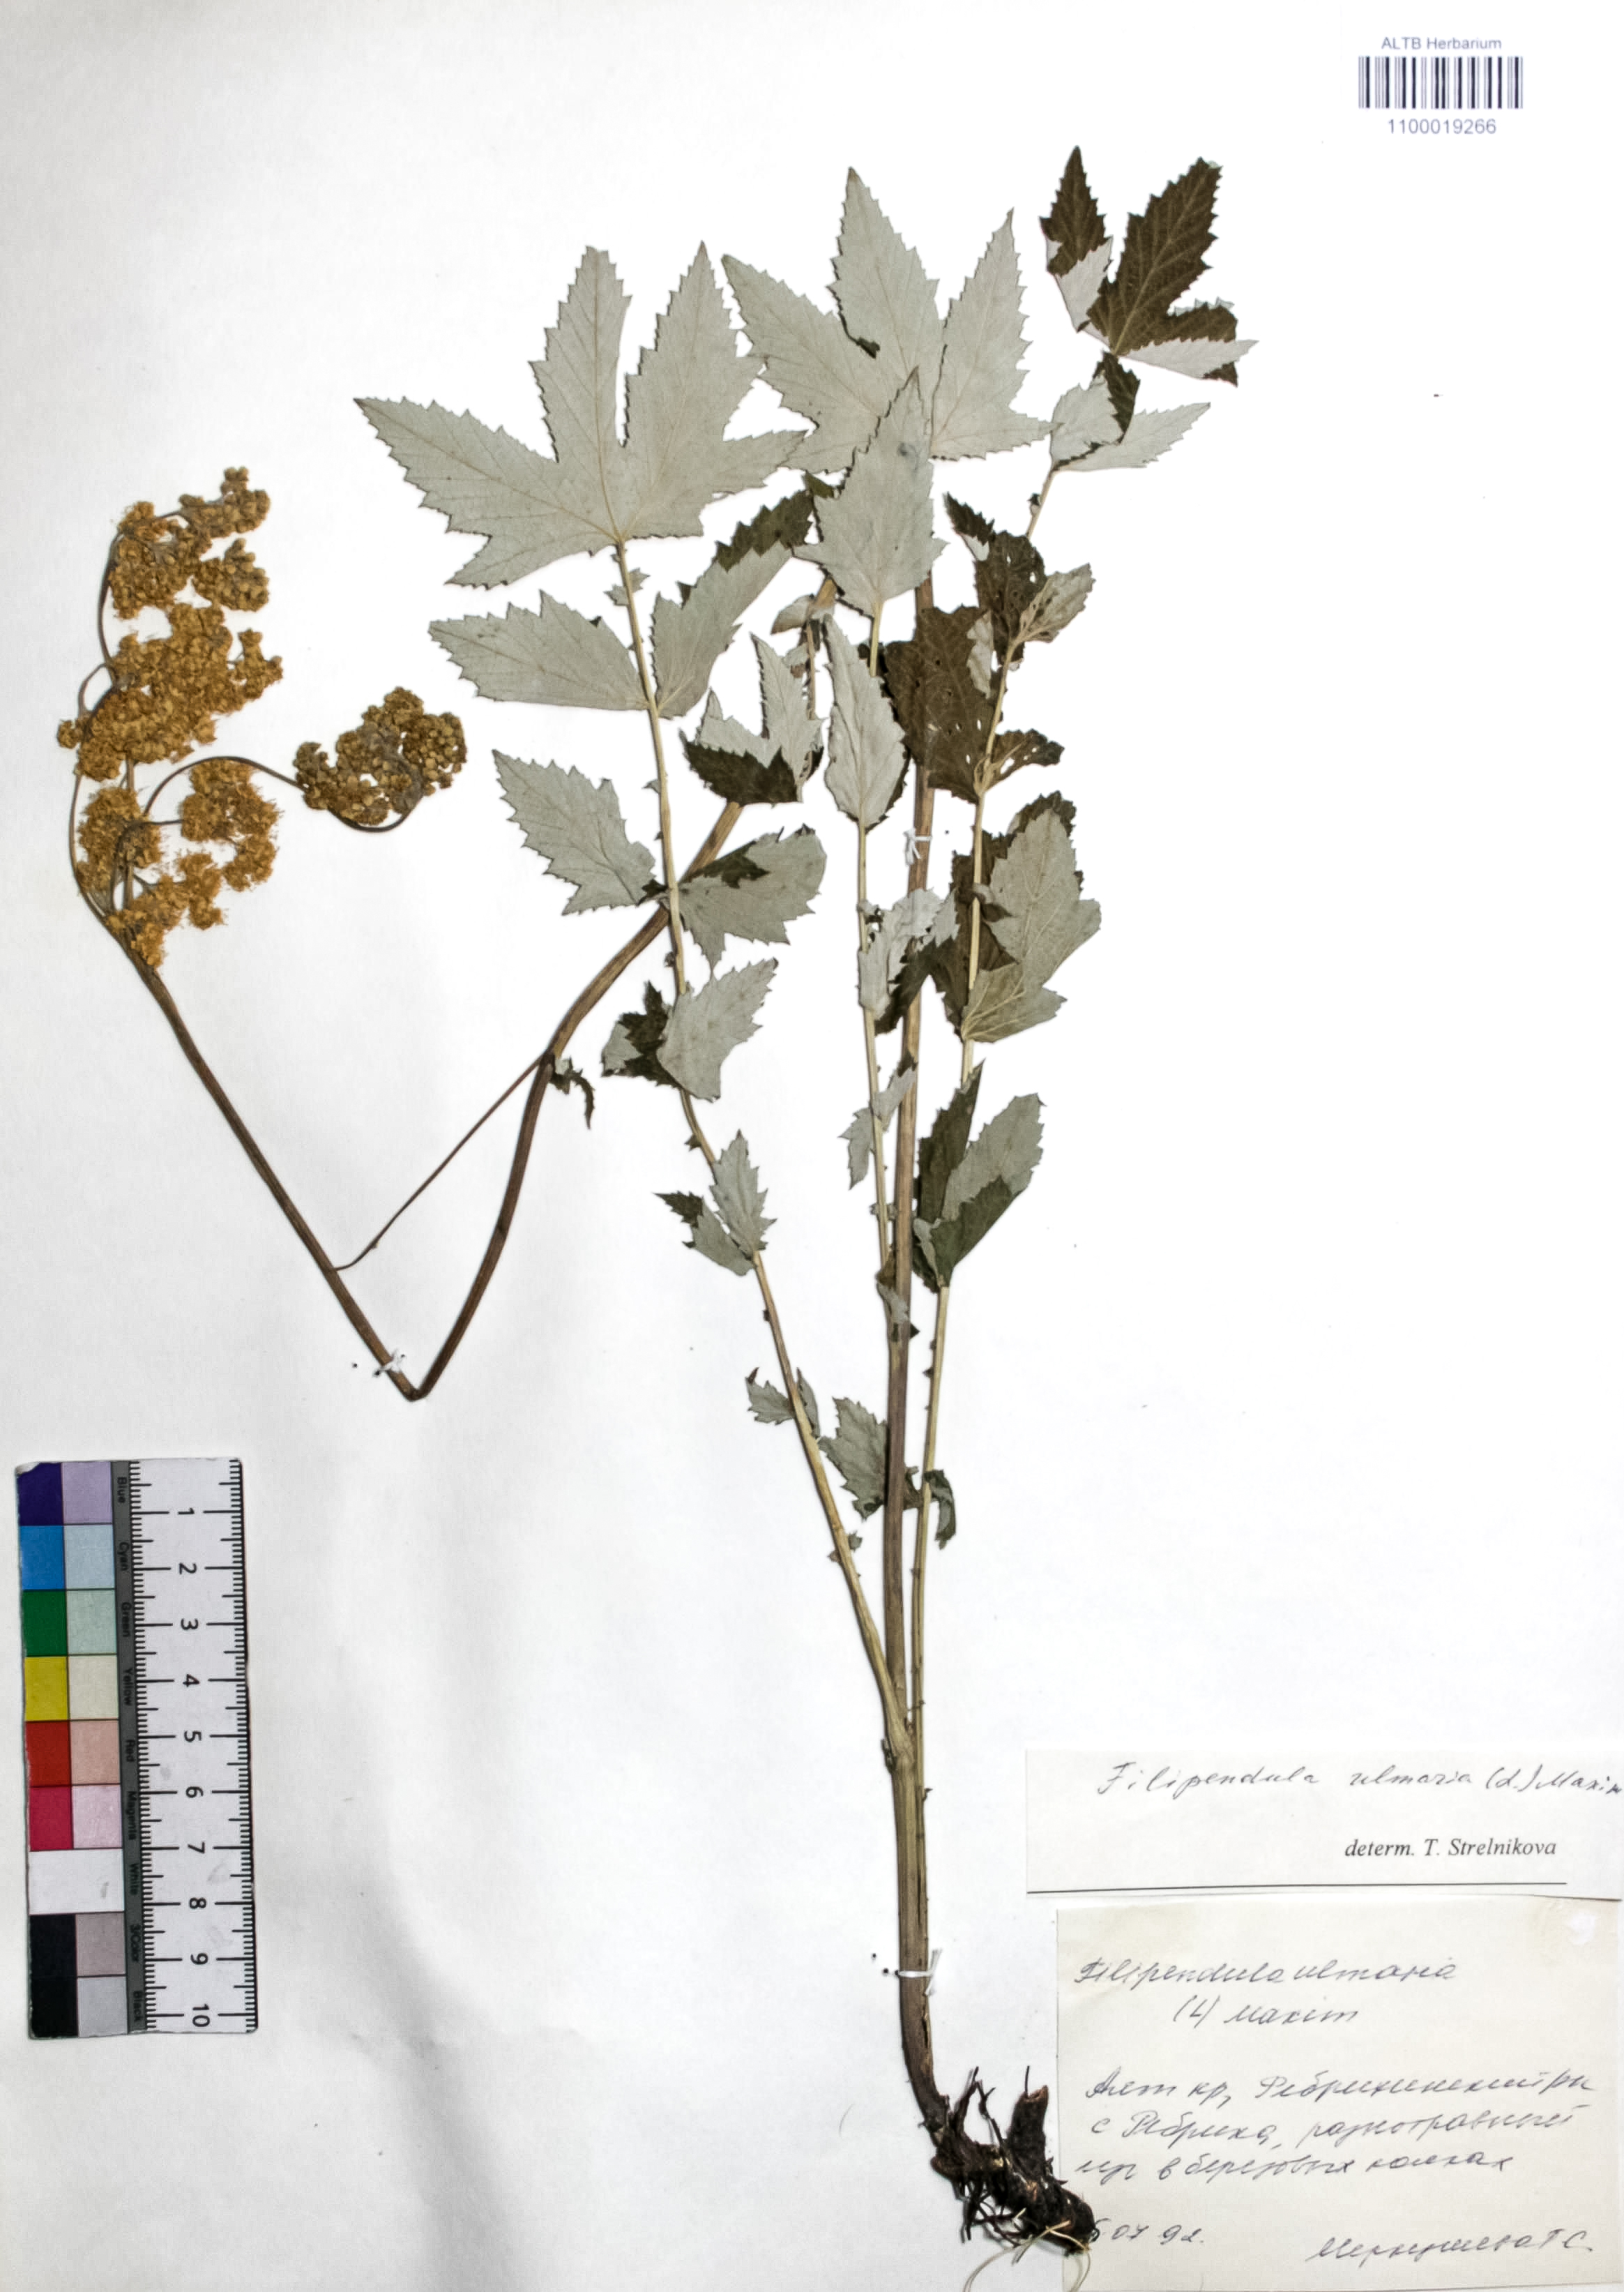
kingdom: Plantae
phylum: Tracheophyta
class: Magnoliopsida
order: Rosales
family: Rosaceae
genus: Filipendula
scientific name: Filipendula ulmaria
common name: Meadowsweet
